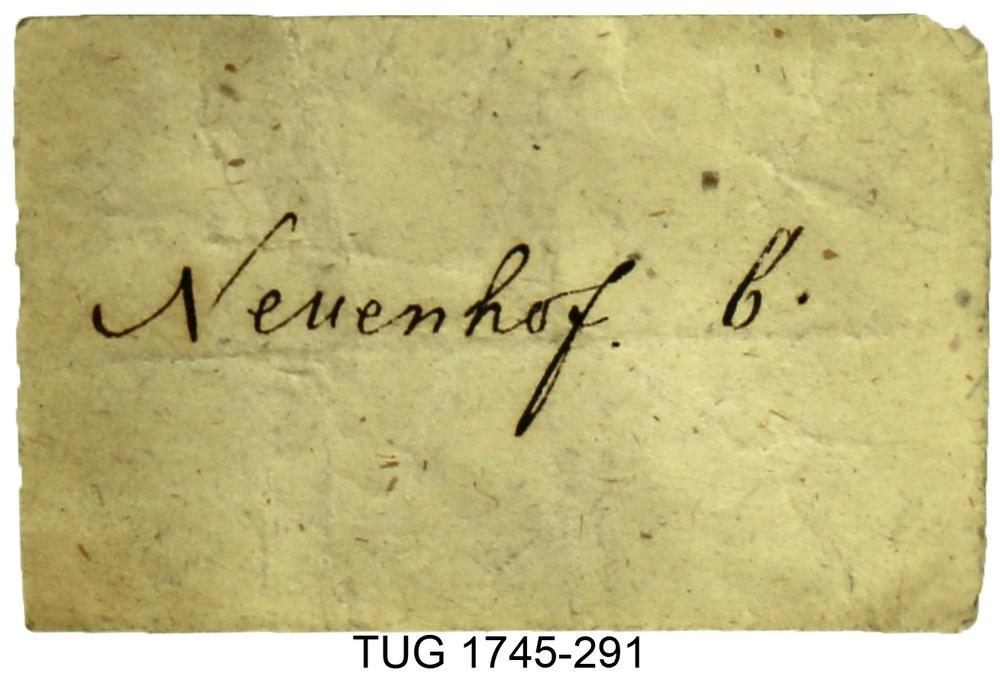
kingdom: Animalia
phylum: Mollusca
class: Cephalopoda
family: Oncoceratidae
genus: Beloitoceras
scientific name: Beloitoceras
